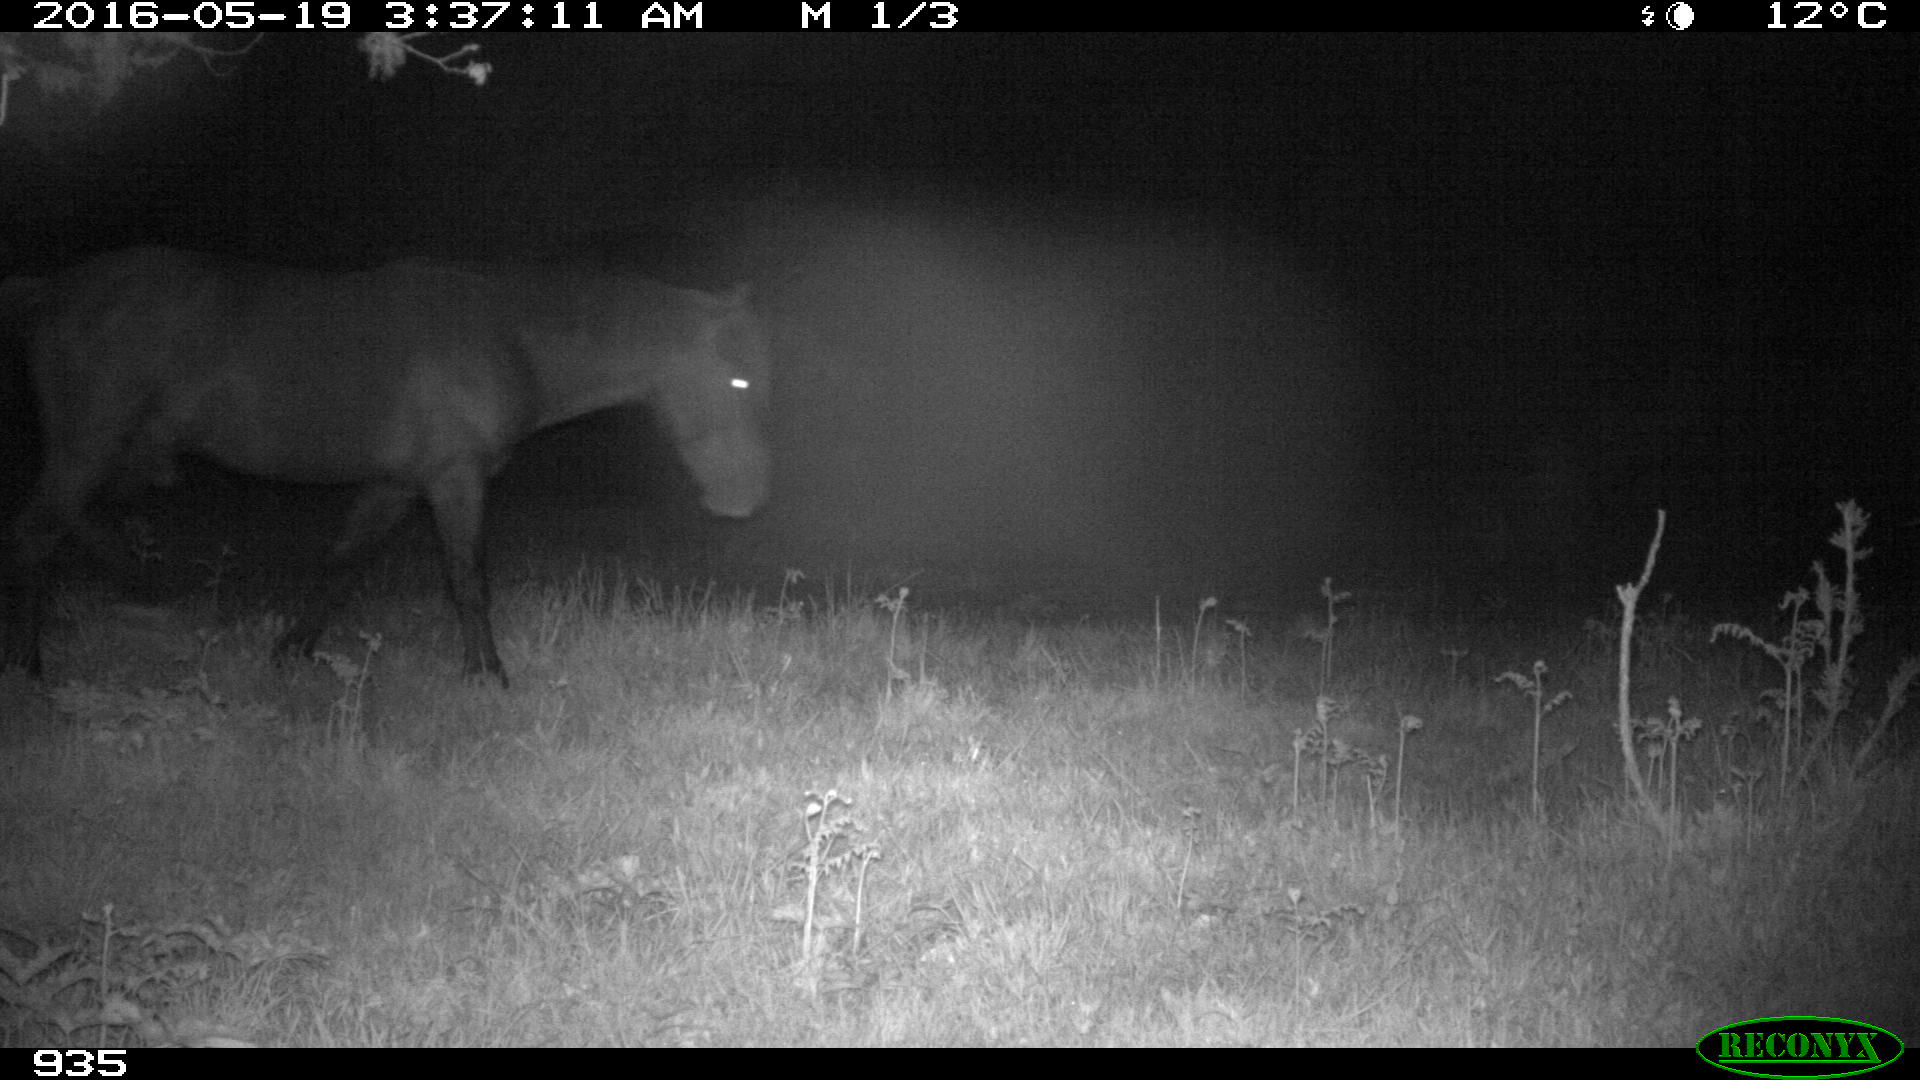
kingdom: Animalia
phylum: Chordata
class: Mammalia
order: Perissodactyla
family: Equidae
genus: Equus
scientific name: Equus caballus
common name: Horse
